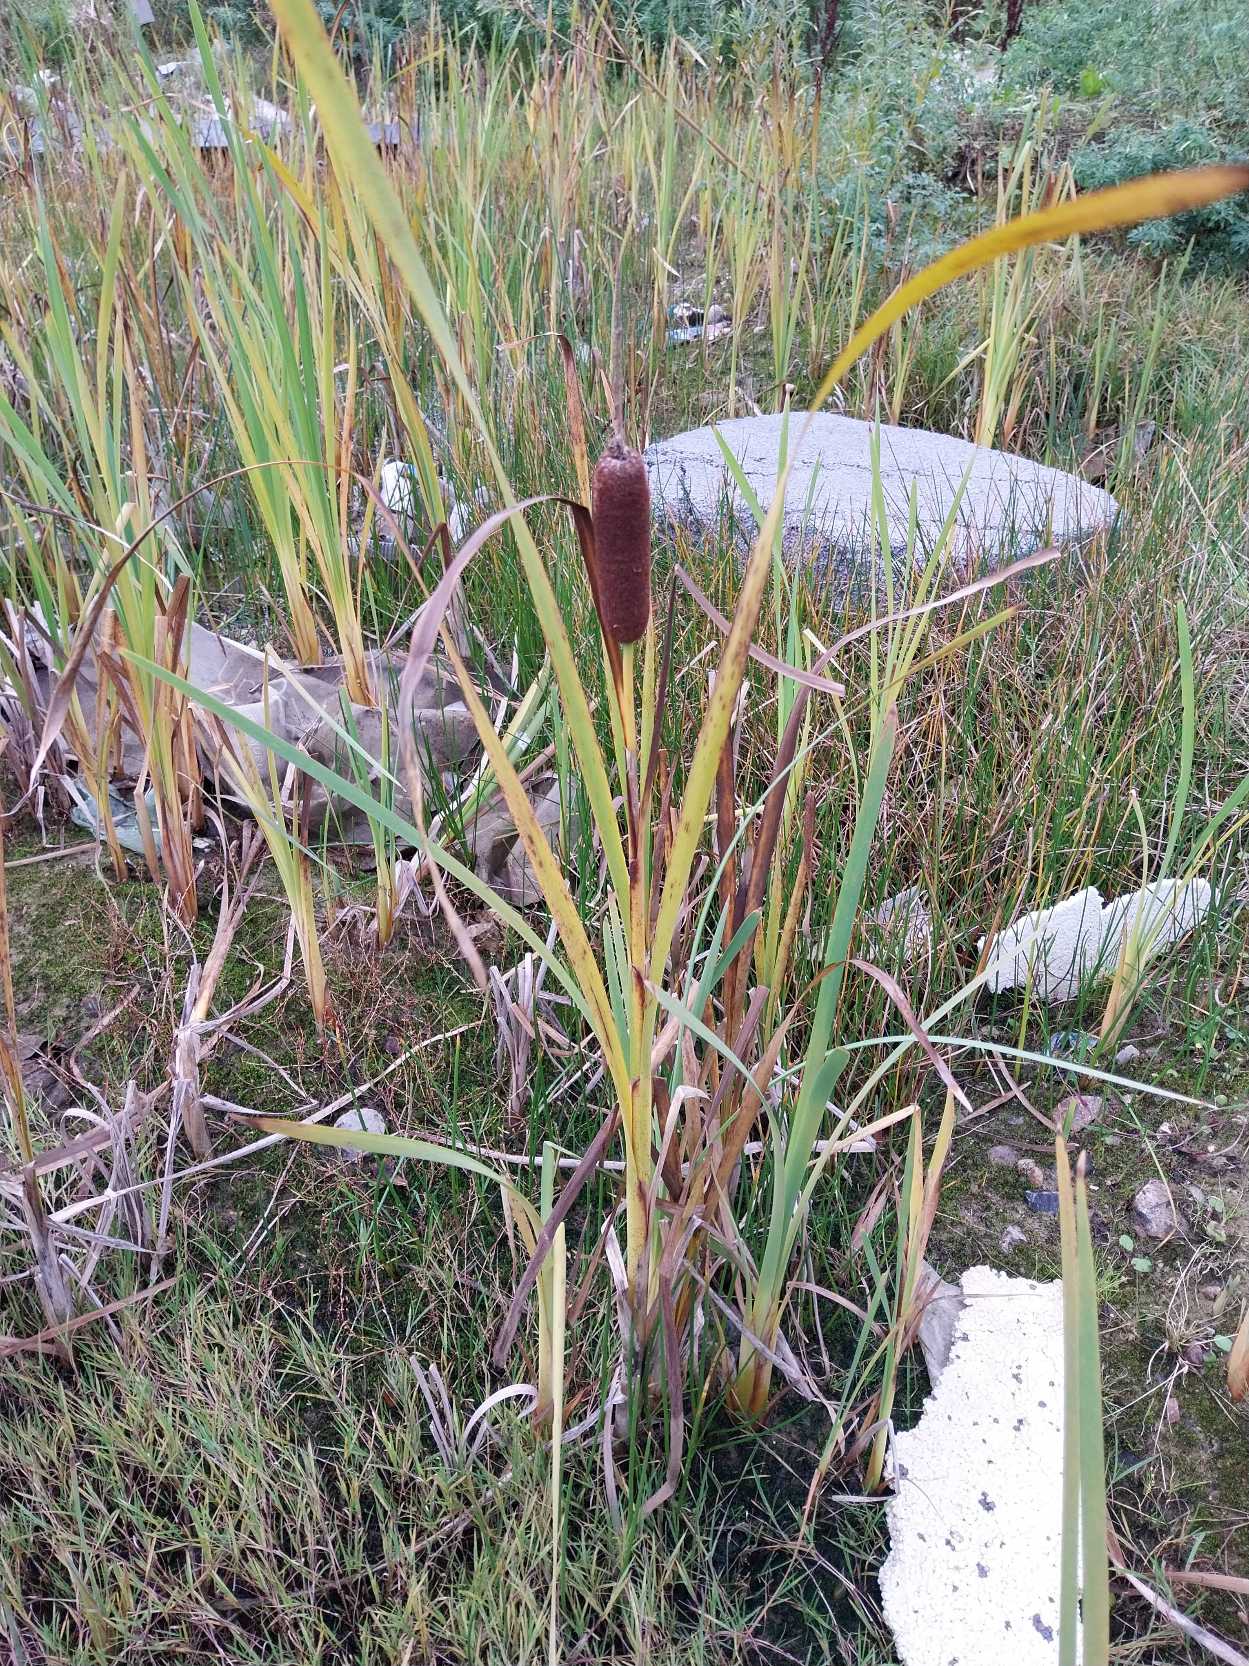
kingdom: Plantae
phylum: Tracheophyta
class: Liliopsida
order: Poales
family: Typhaceae
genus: Typha
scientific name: Typha latifolia
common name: Bredbladet dunhammer
